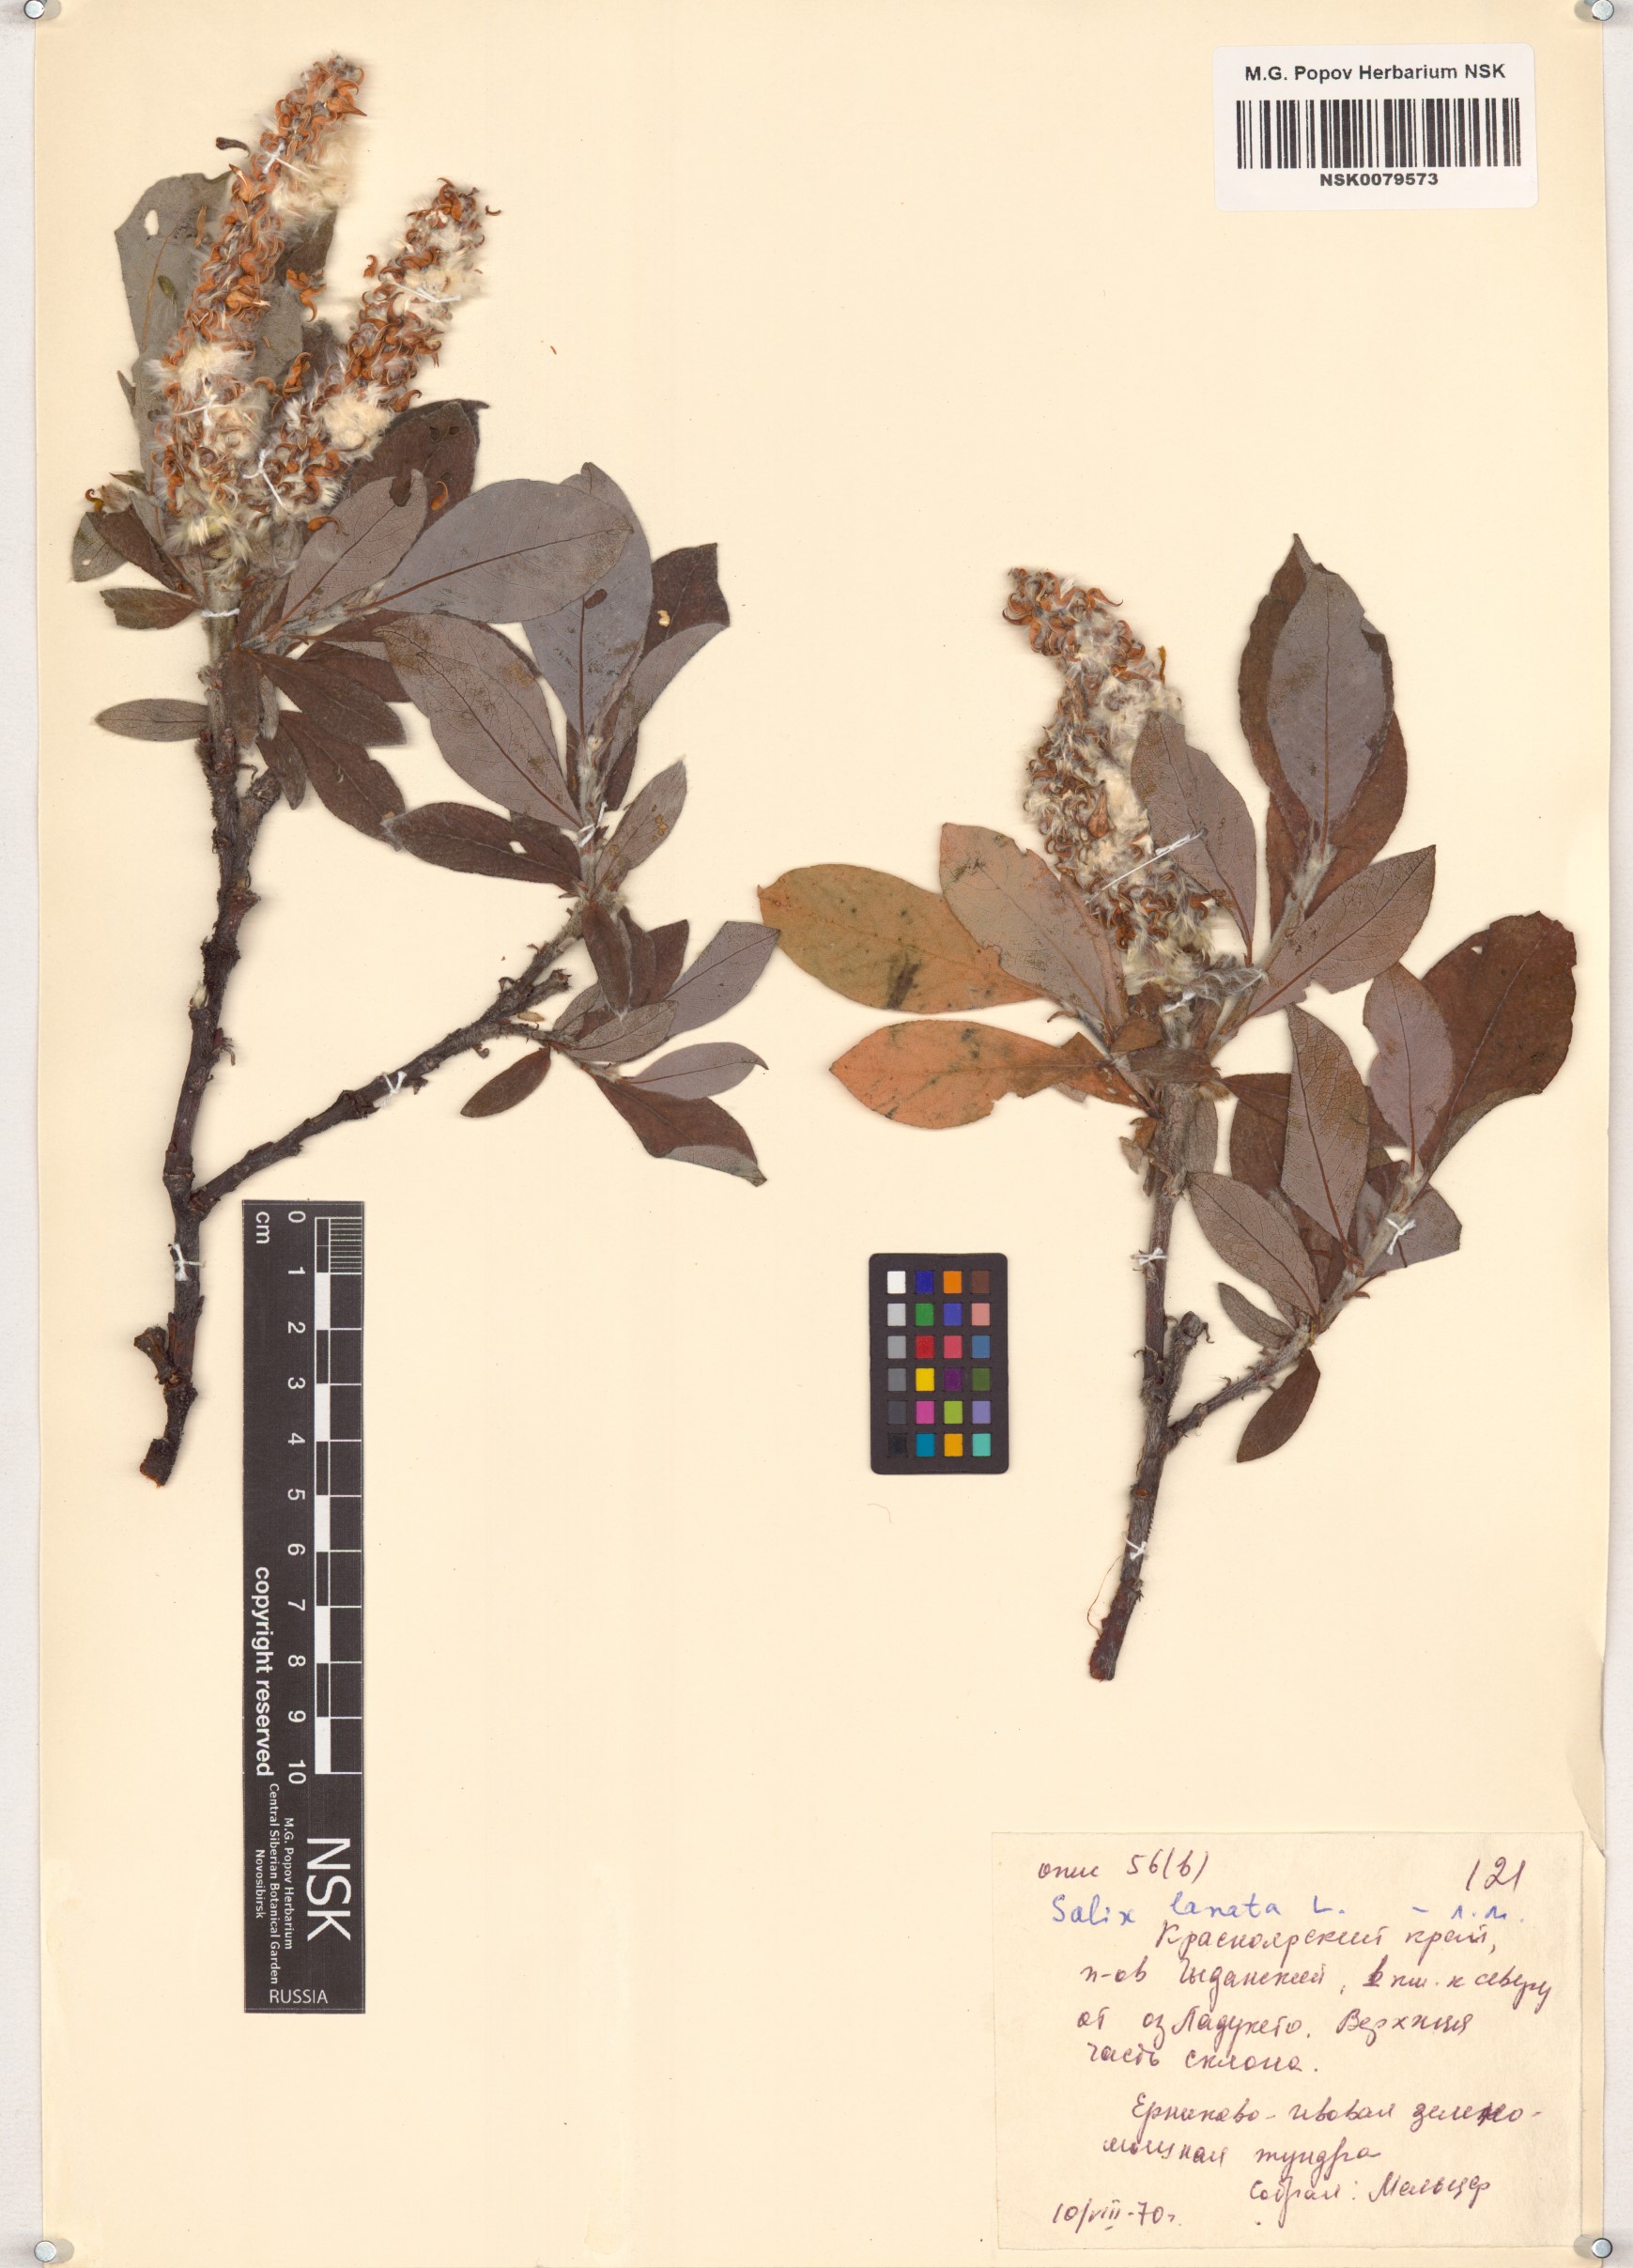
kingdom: Plantae
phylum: Tracheophyta
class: Magnoliopsida
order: Malpighiales
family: Salicaceae
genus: Salix
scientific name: Salix lanata
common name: Woolly willow
